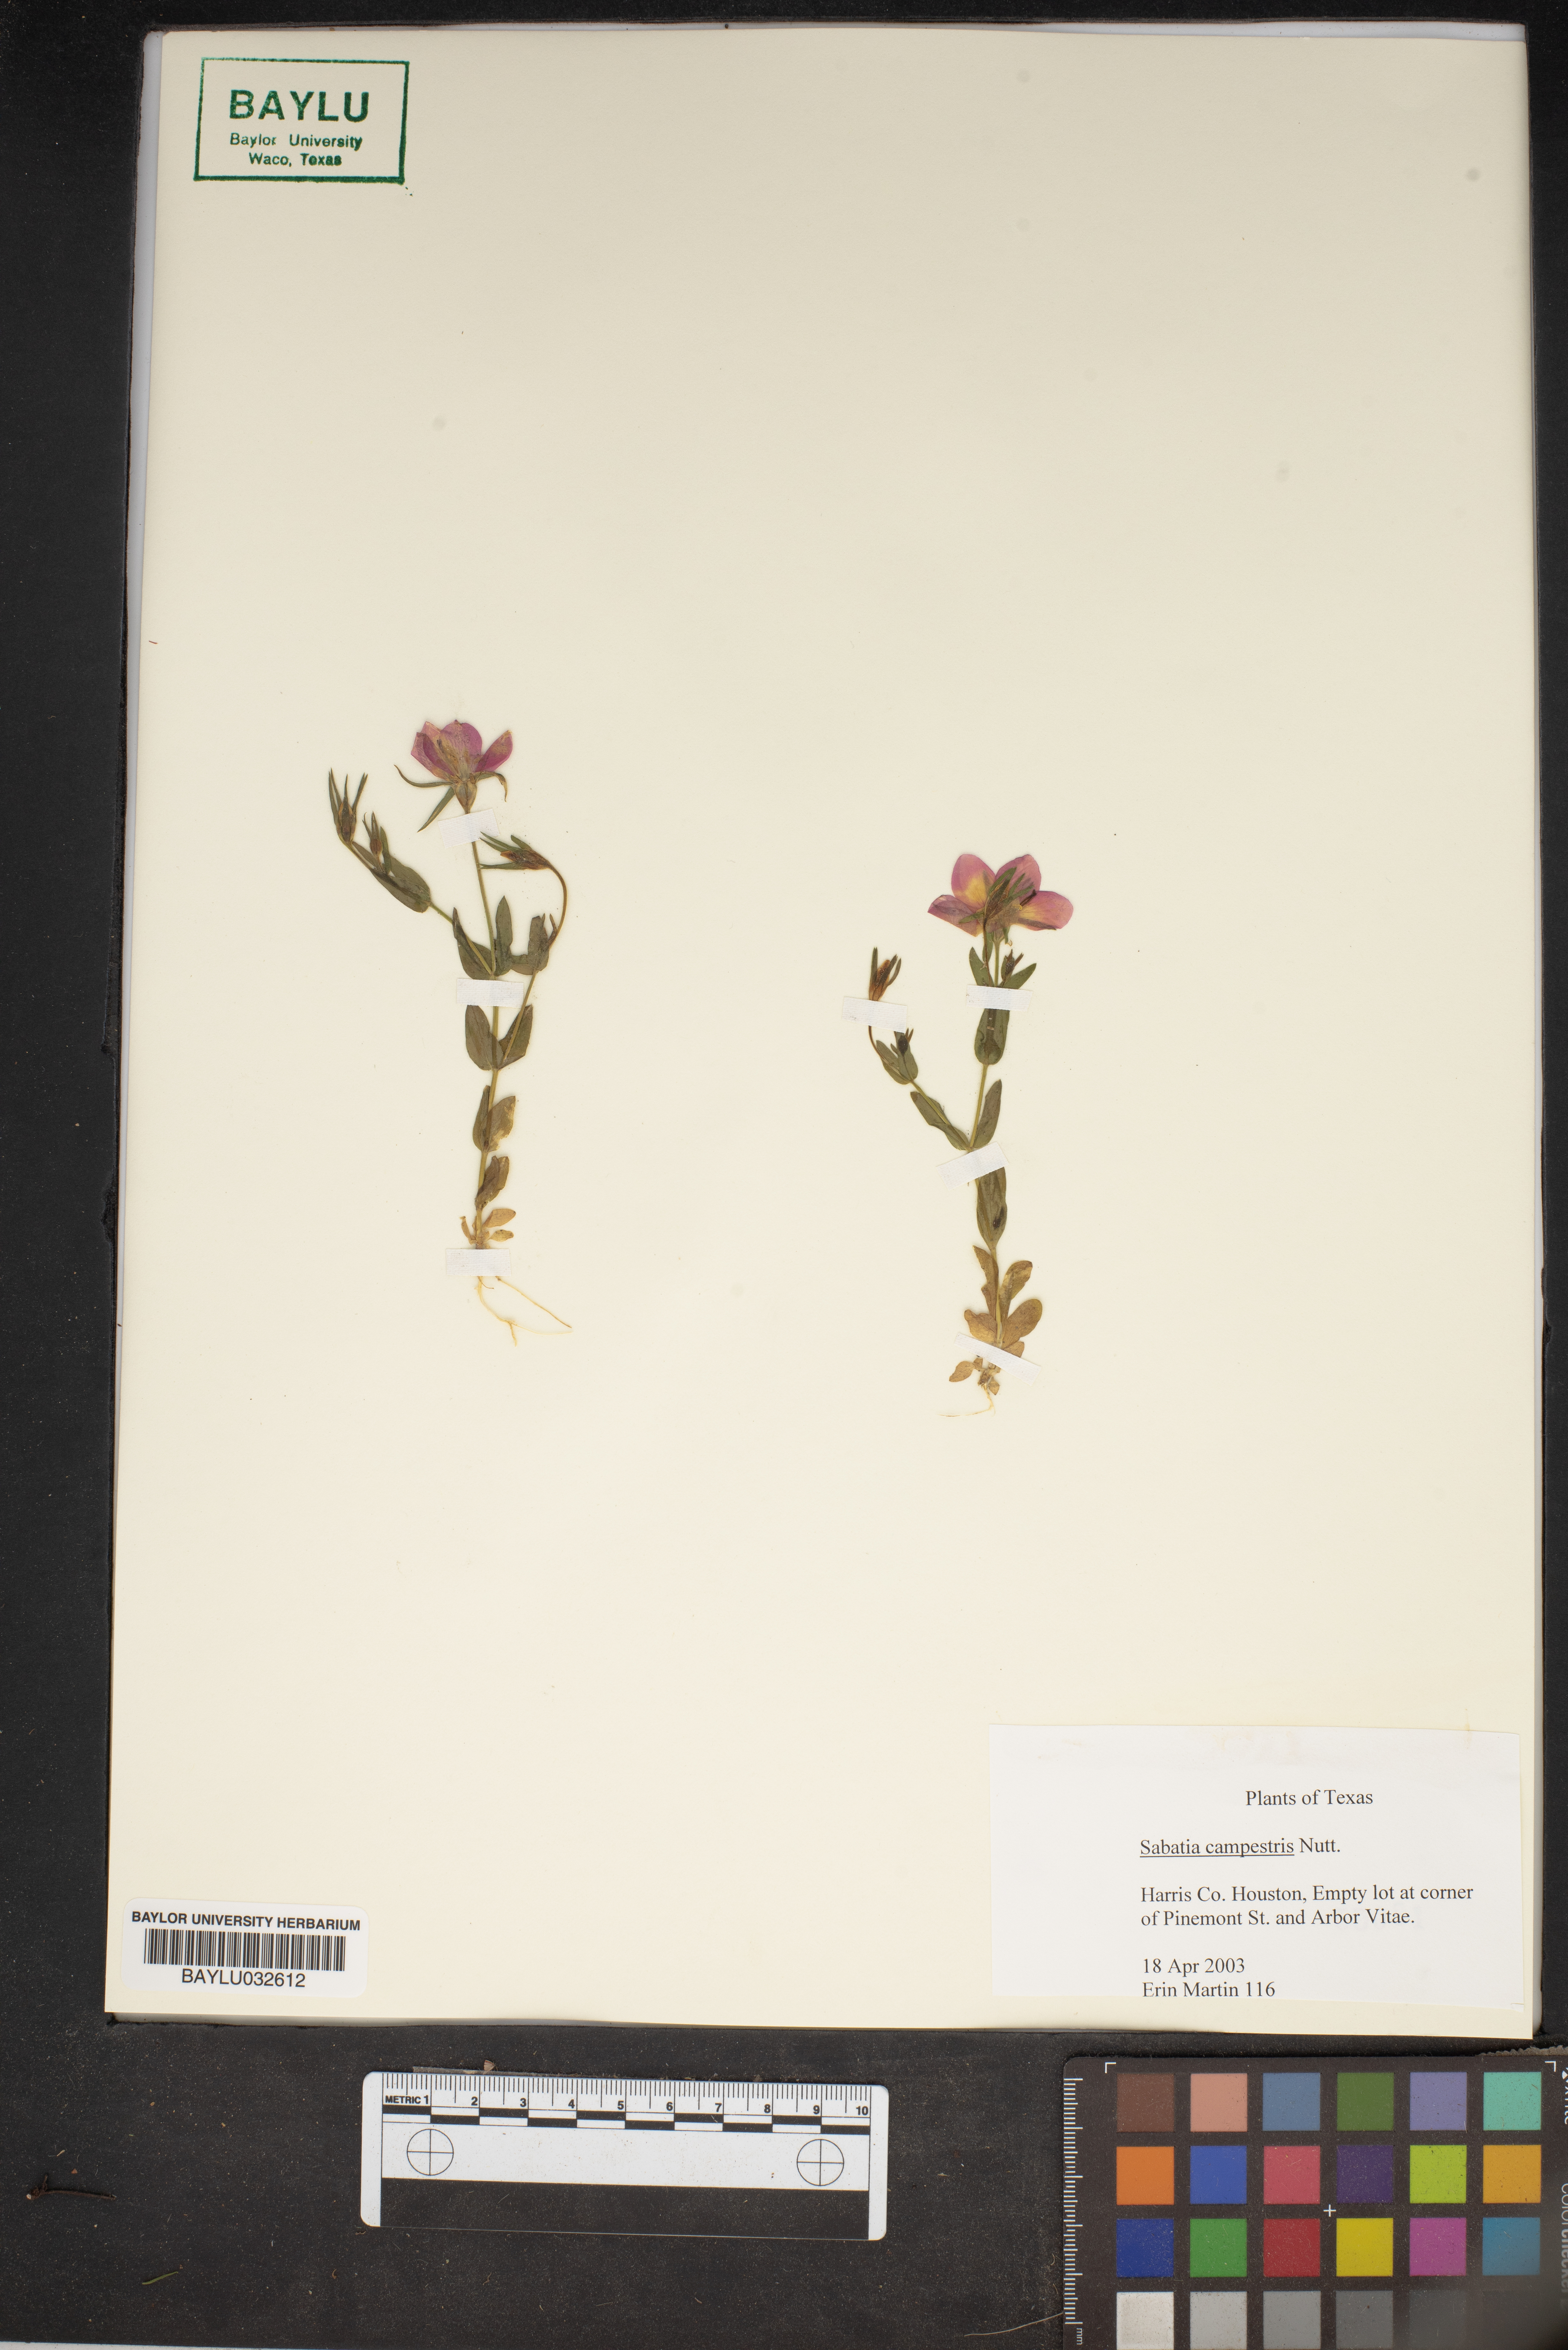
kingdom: Plantae
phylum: Tracheophyta
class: Magnoliopsida
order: Gentianales
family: Gentianaceae
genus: Sabatia
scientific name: Sabatia campestris
